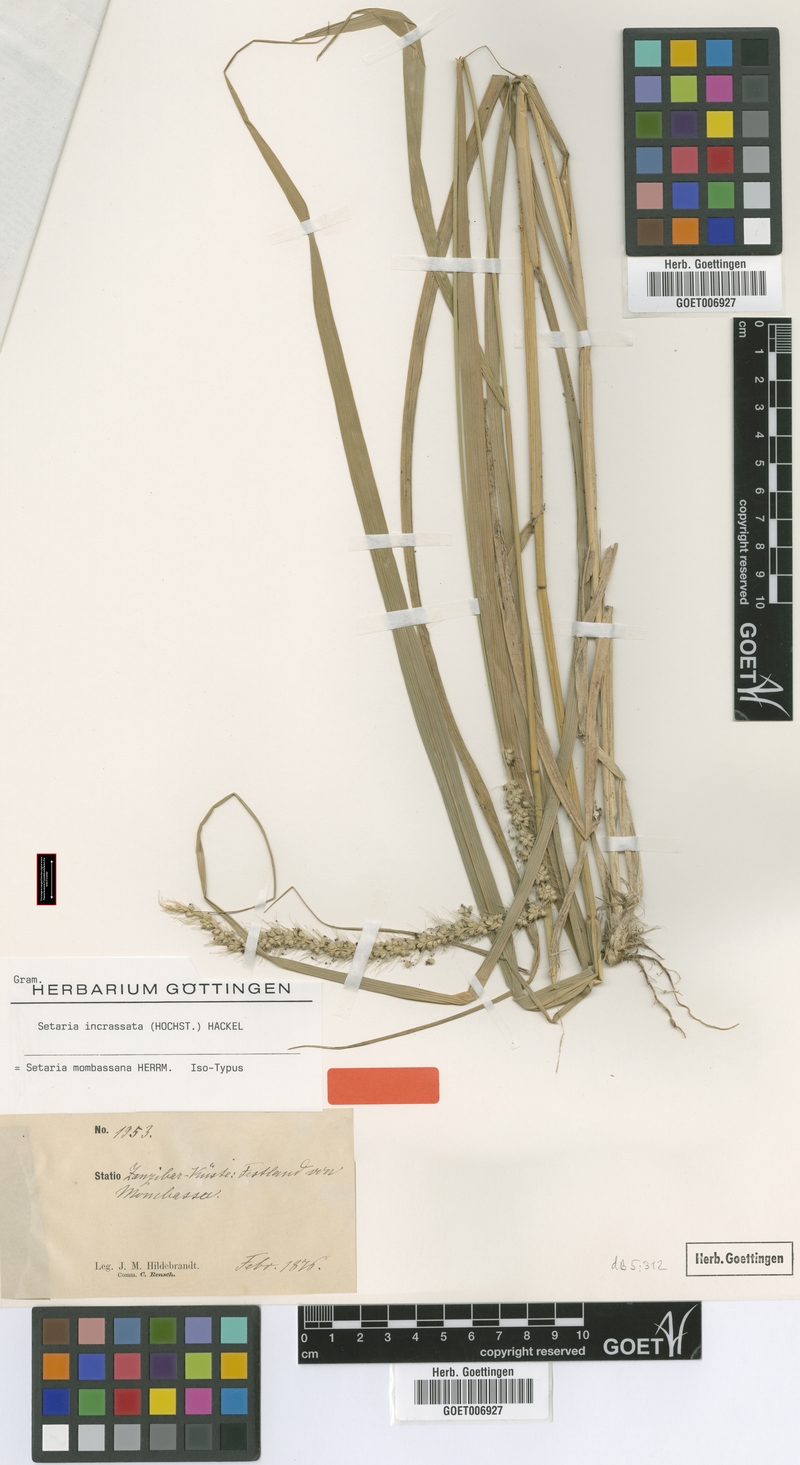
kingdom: Plantae
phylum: Tracheophyta
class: Liliopsida
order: Poales
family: Poaceae
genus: Setaria
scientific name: Setaria incrassata
